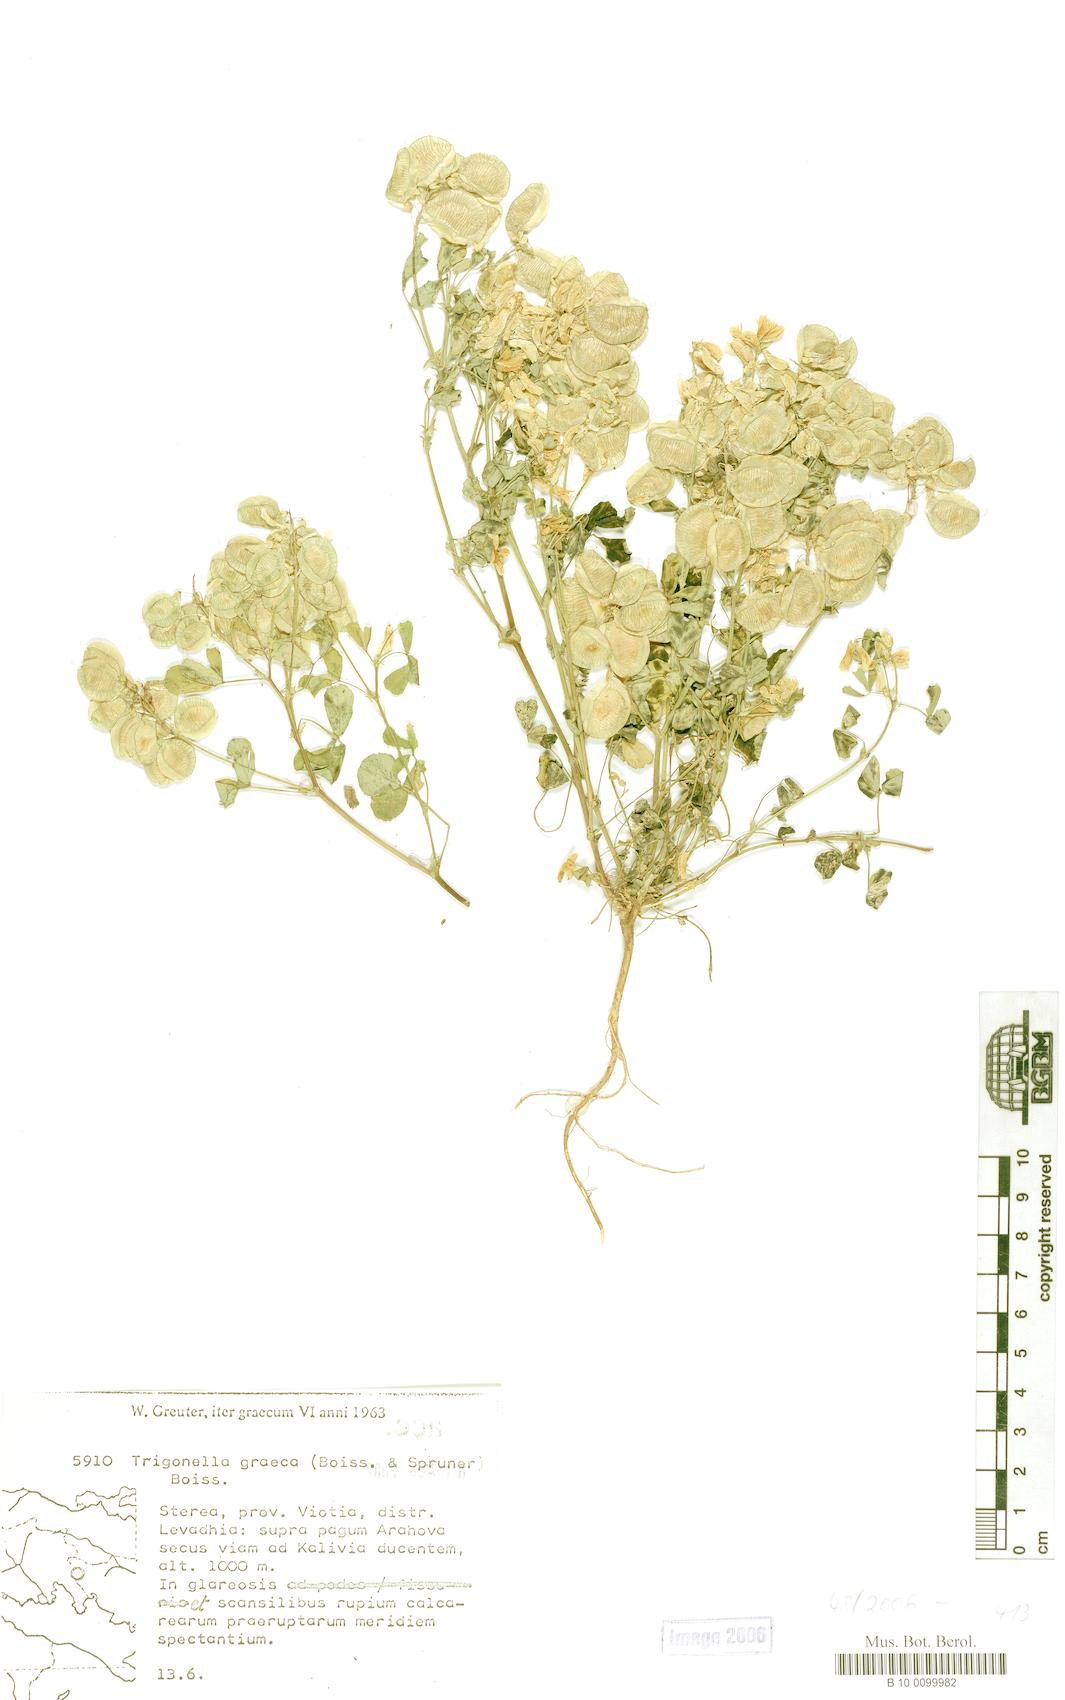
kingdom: Plantae
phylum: Tracheophyta
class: Magnoliopsida
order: Fabales
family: Fabaceae
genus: Trigonella
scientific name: Trigonella graeca
